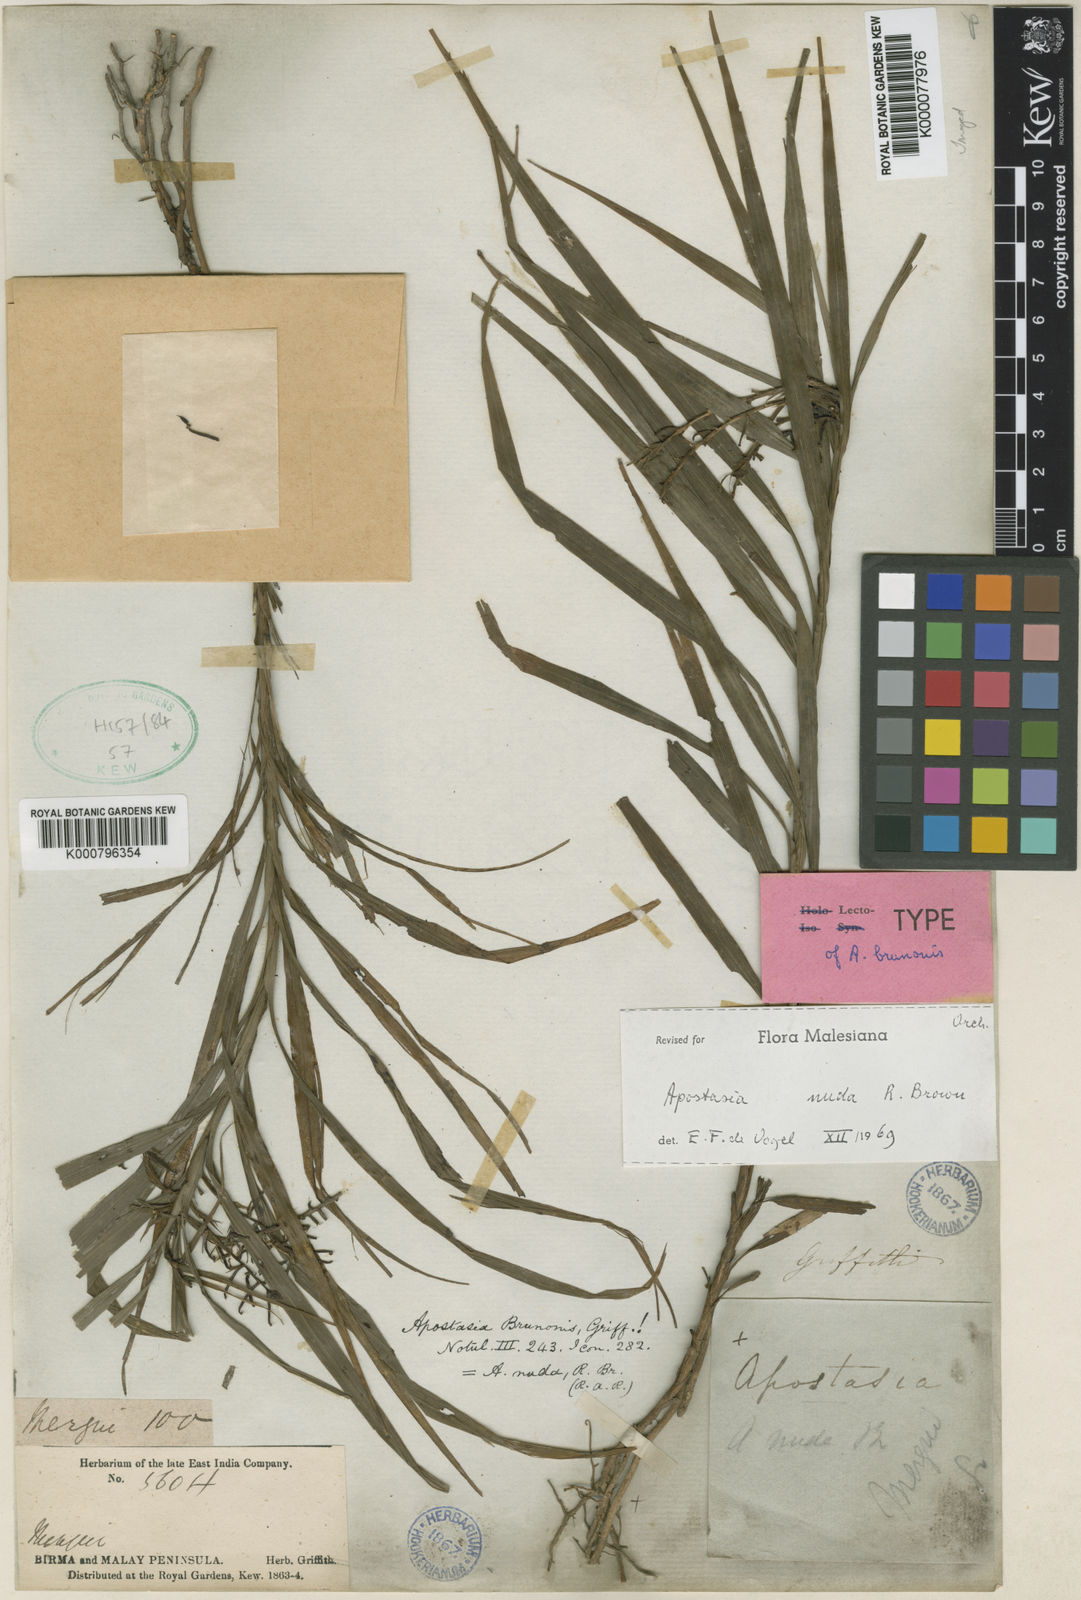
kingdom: Plantae
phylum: Tracheophyta
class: Liliopsida
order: Asparagales
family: Orchidaceae
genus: Apostasia
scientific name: Apostasia nuda
